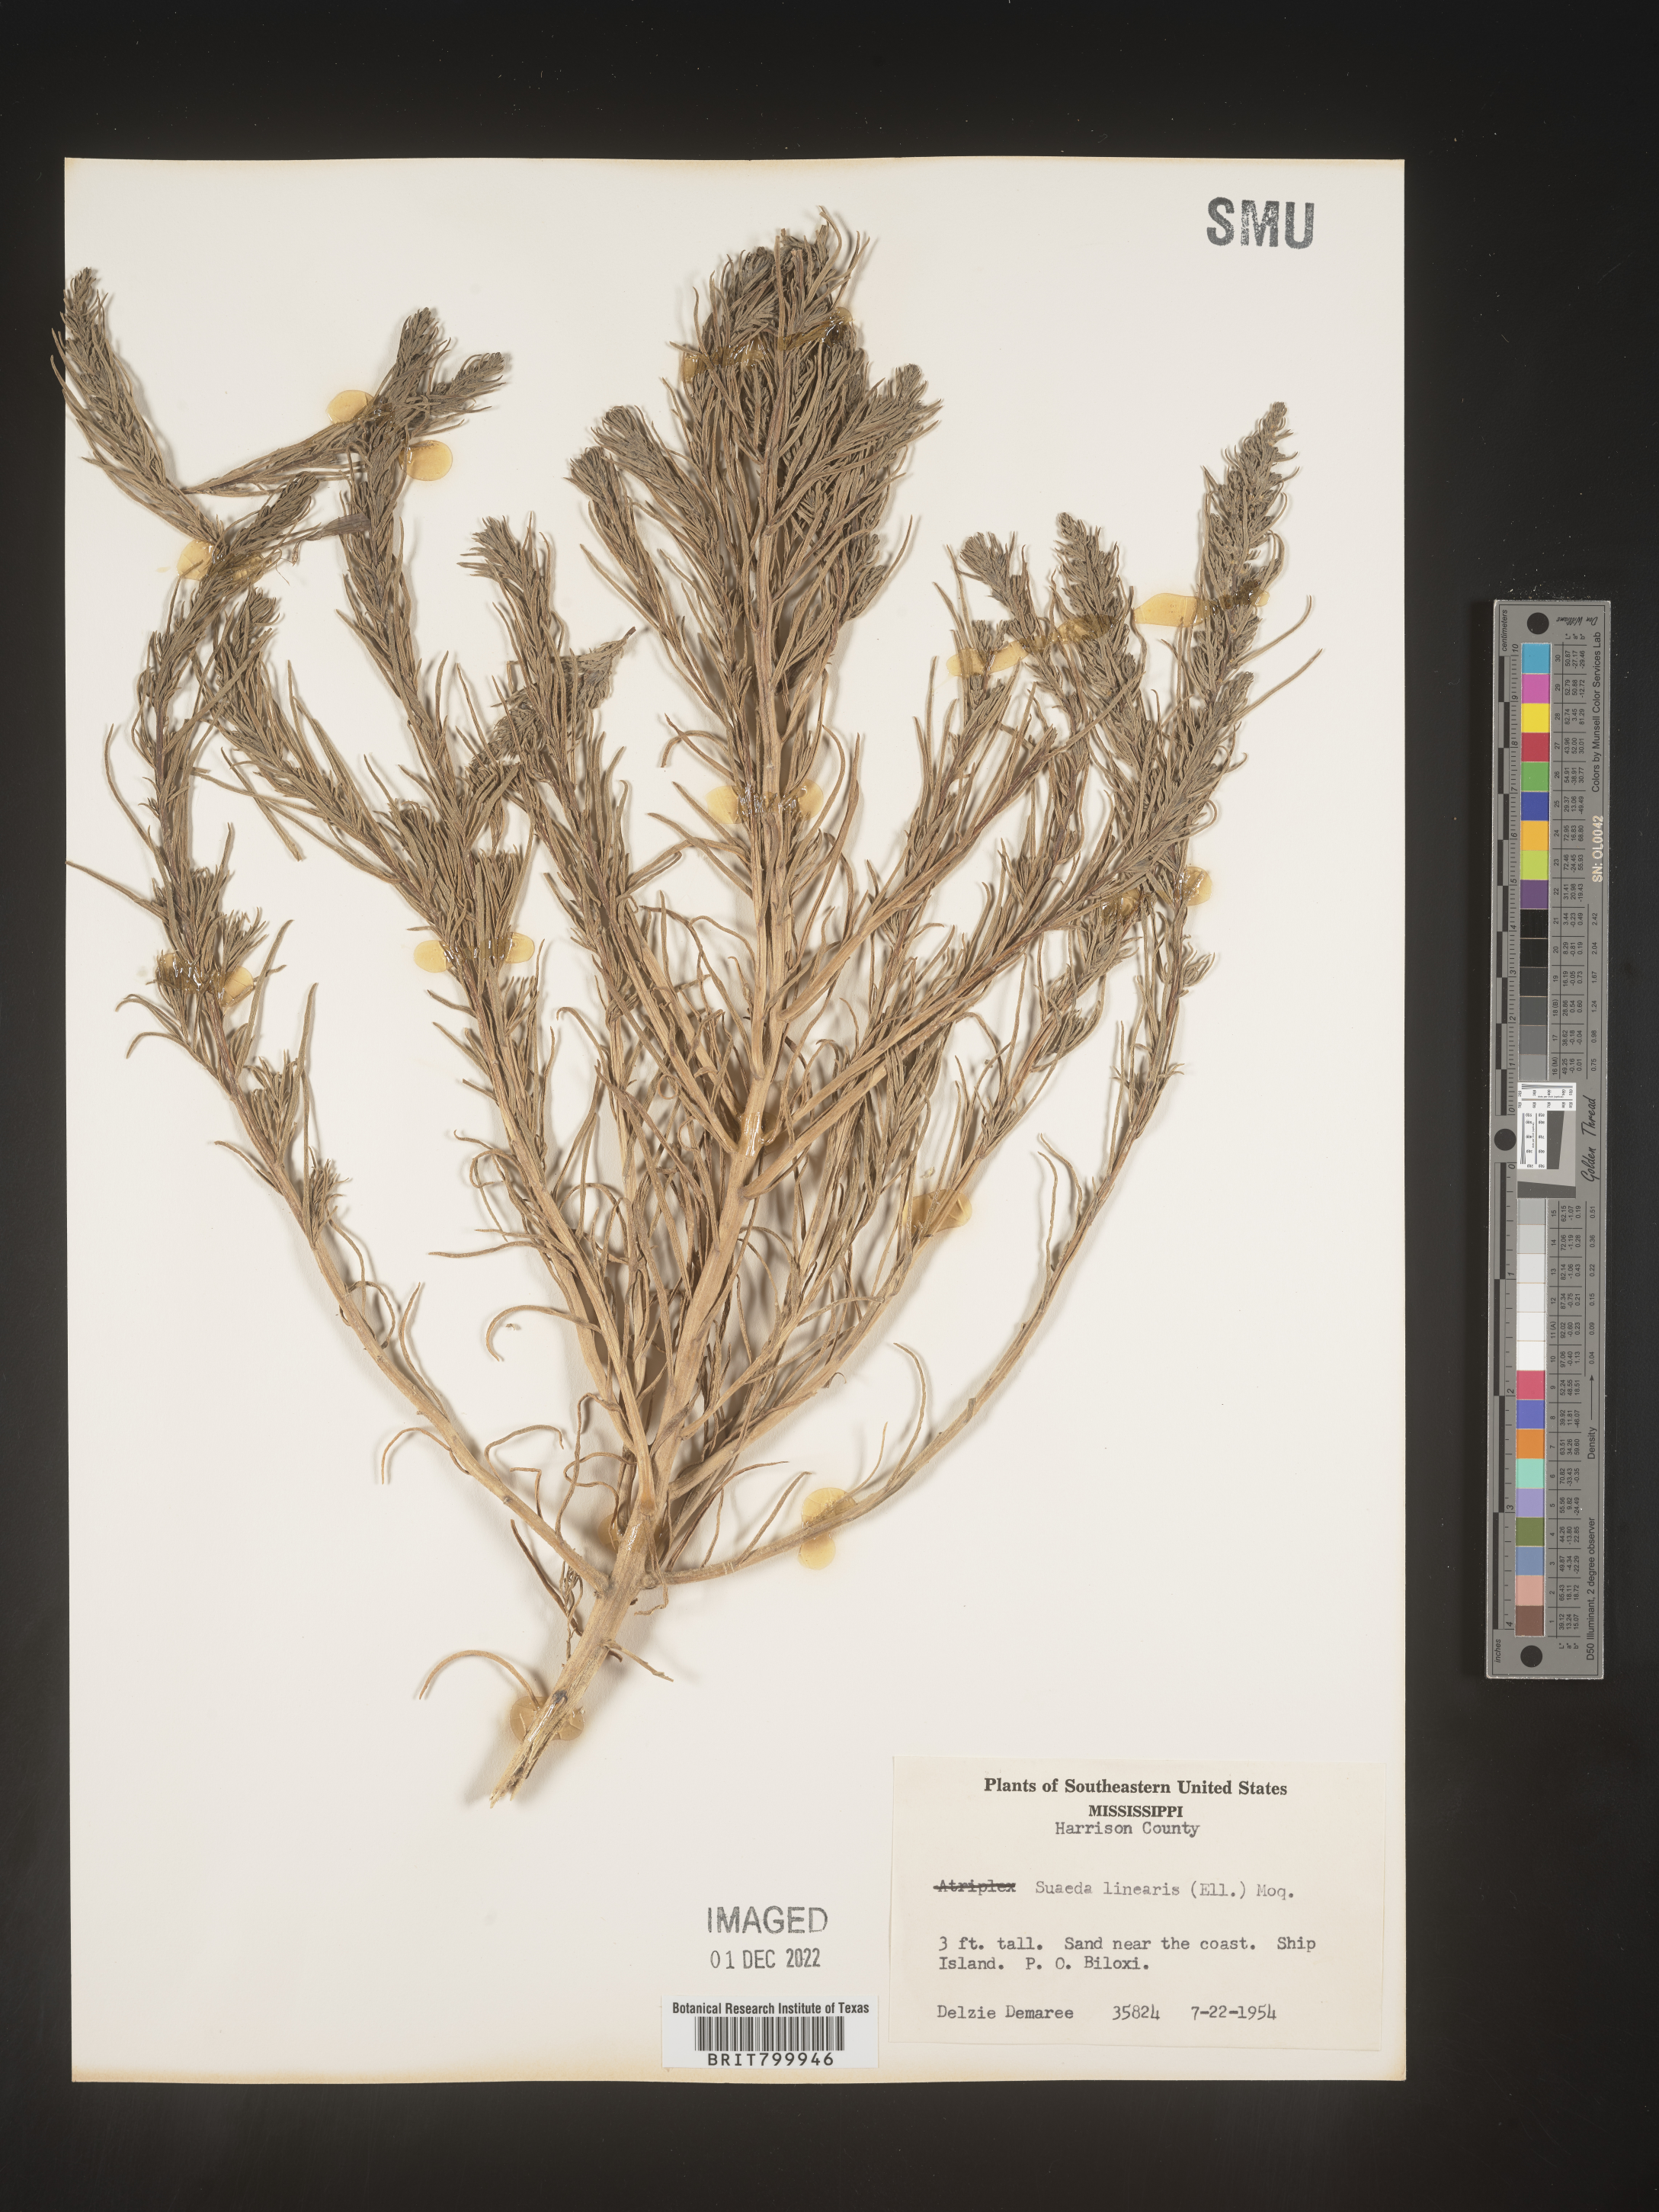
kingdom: Plantae
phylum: Tracheophyta
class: Magnoliopsida
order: Caryophyllales
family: Amaranthaceae
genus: Suaeda
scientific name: Suaeda linearis
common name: Annual seepweed
